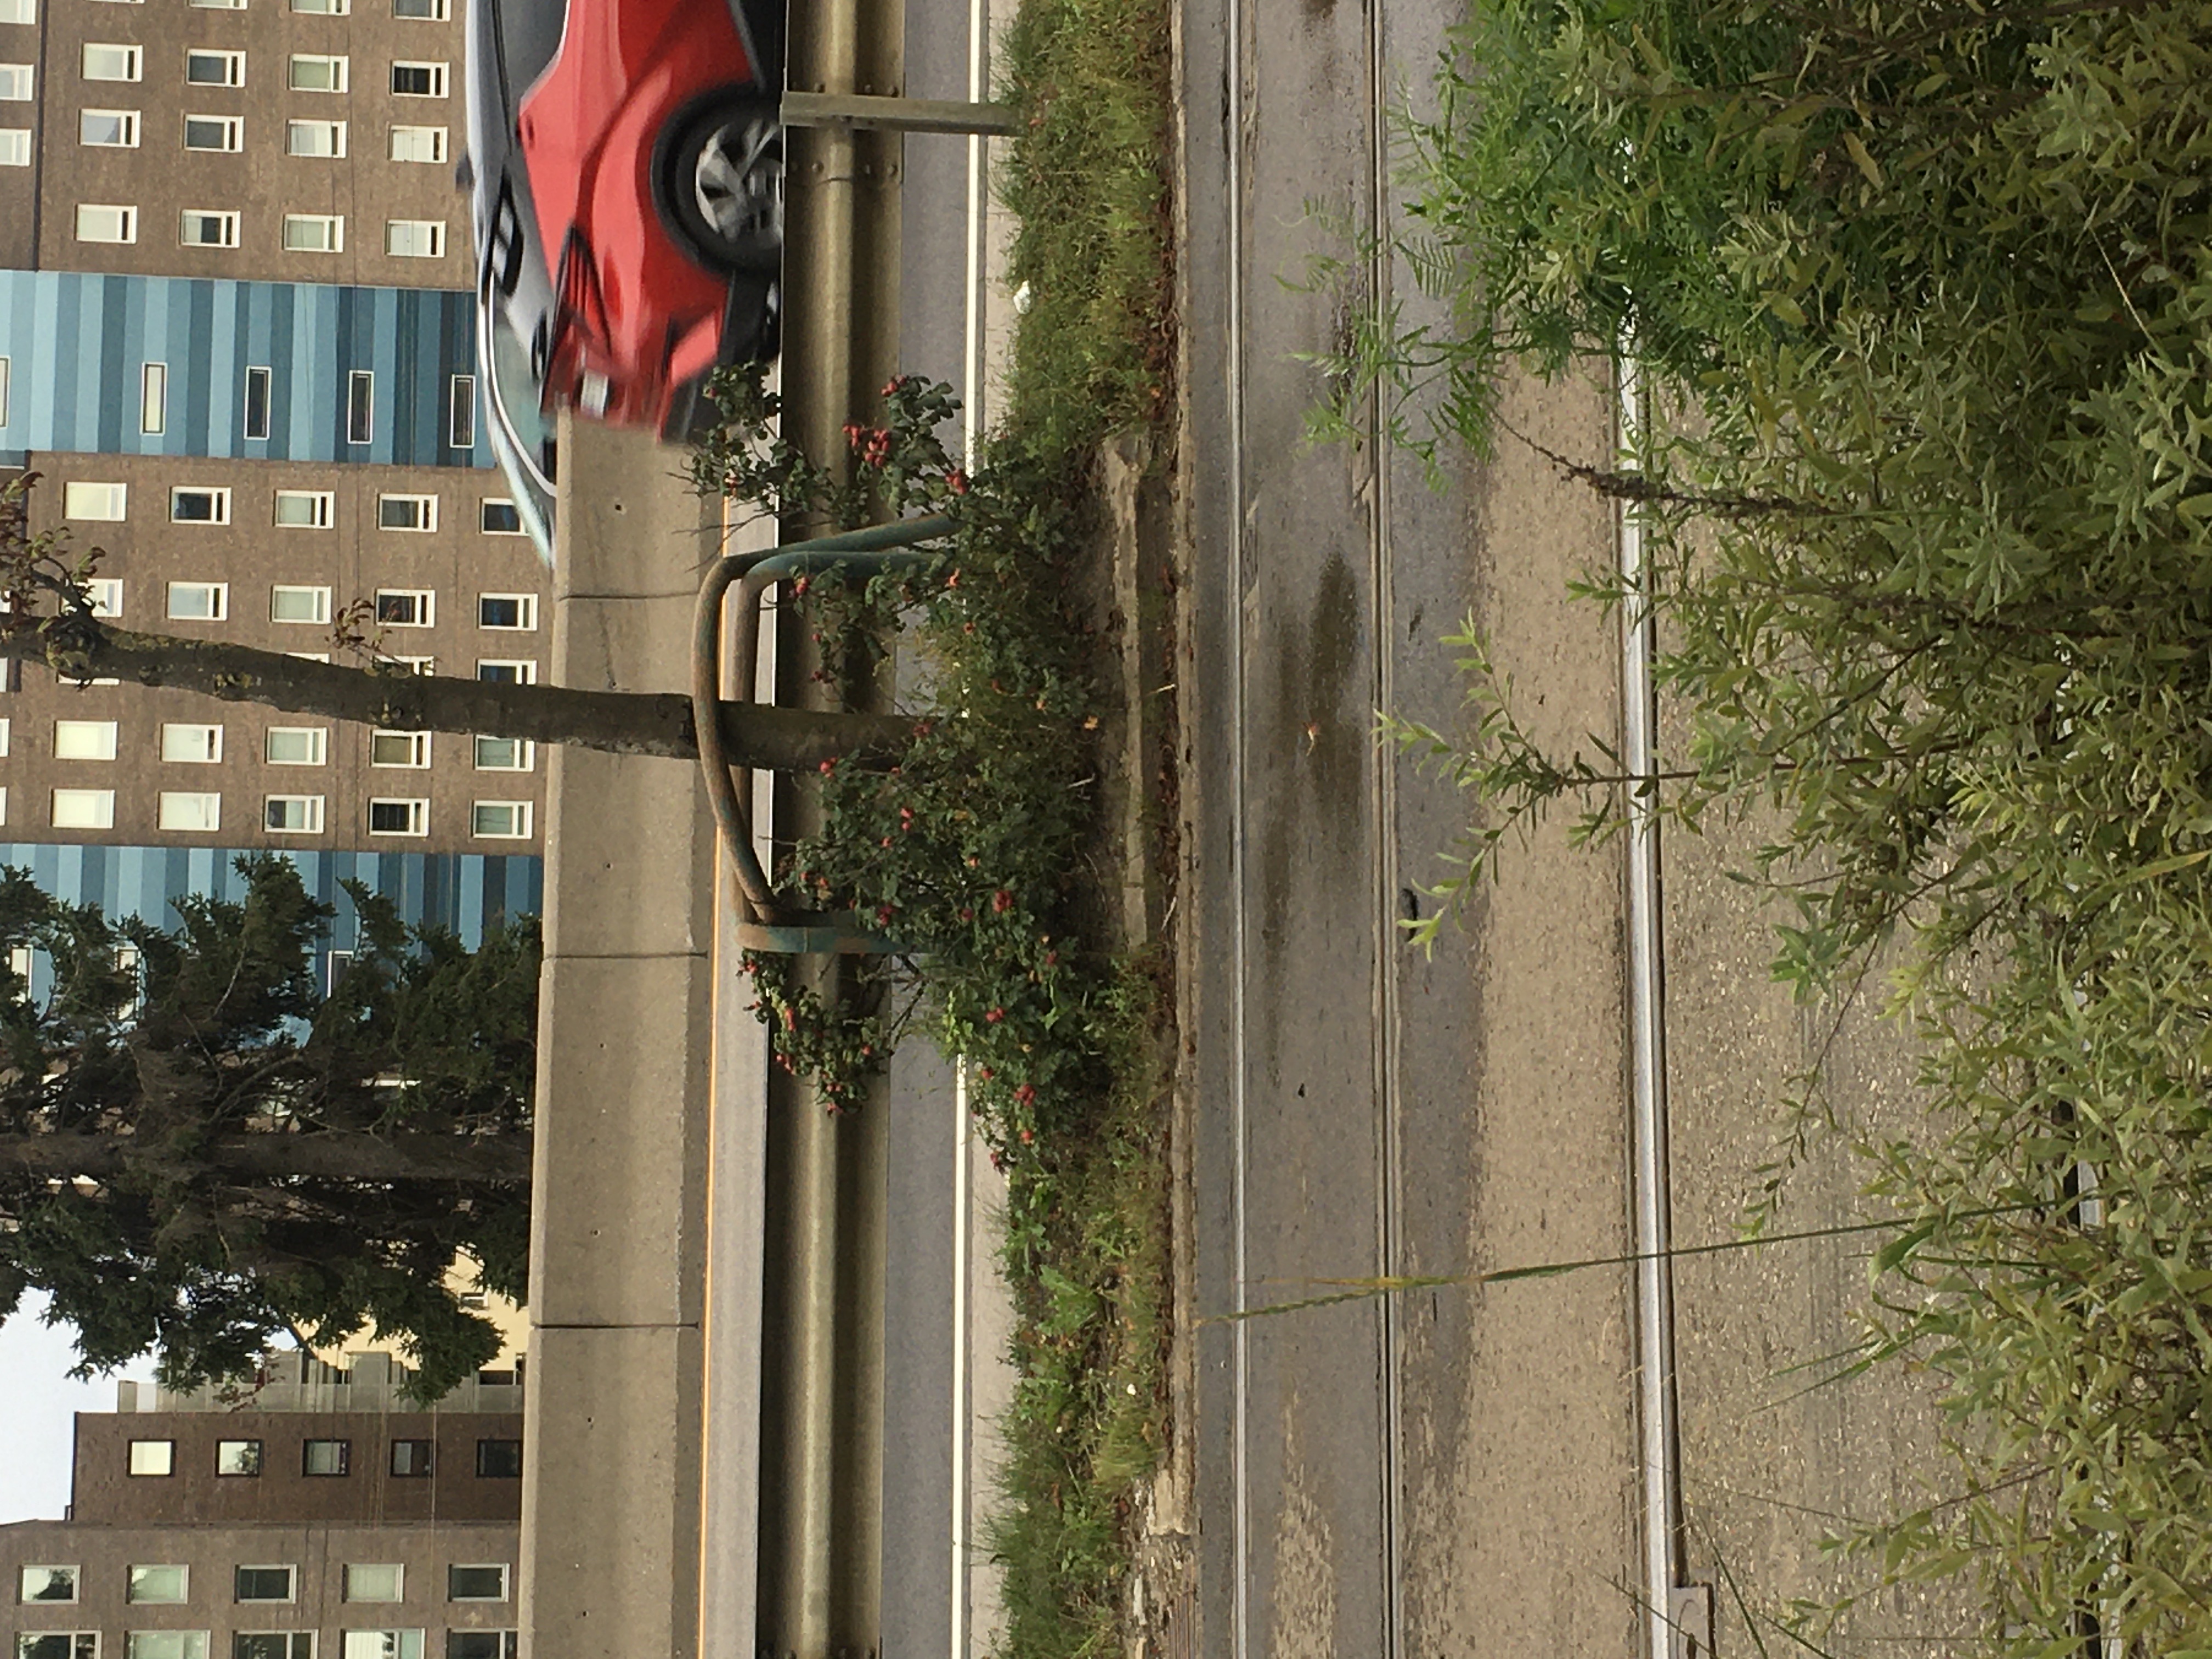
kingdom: Plantae
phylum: Tracheophyta
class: Magnoliopsida
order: Rosales
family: Rosaceae
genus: Rosa
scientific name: Rosa rugosa
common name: rynkerose
